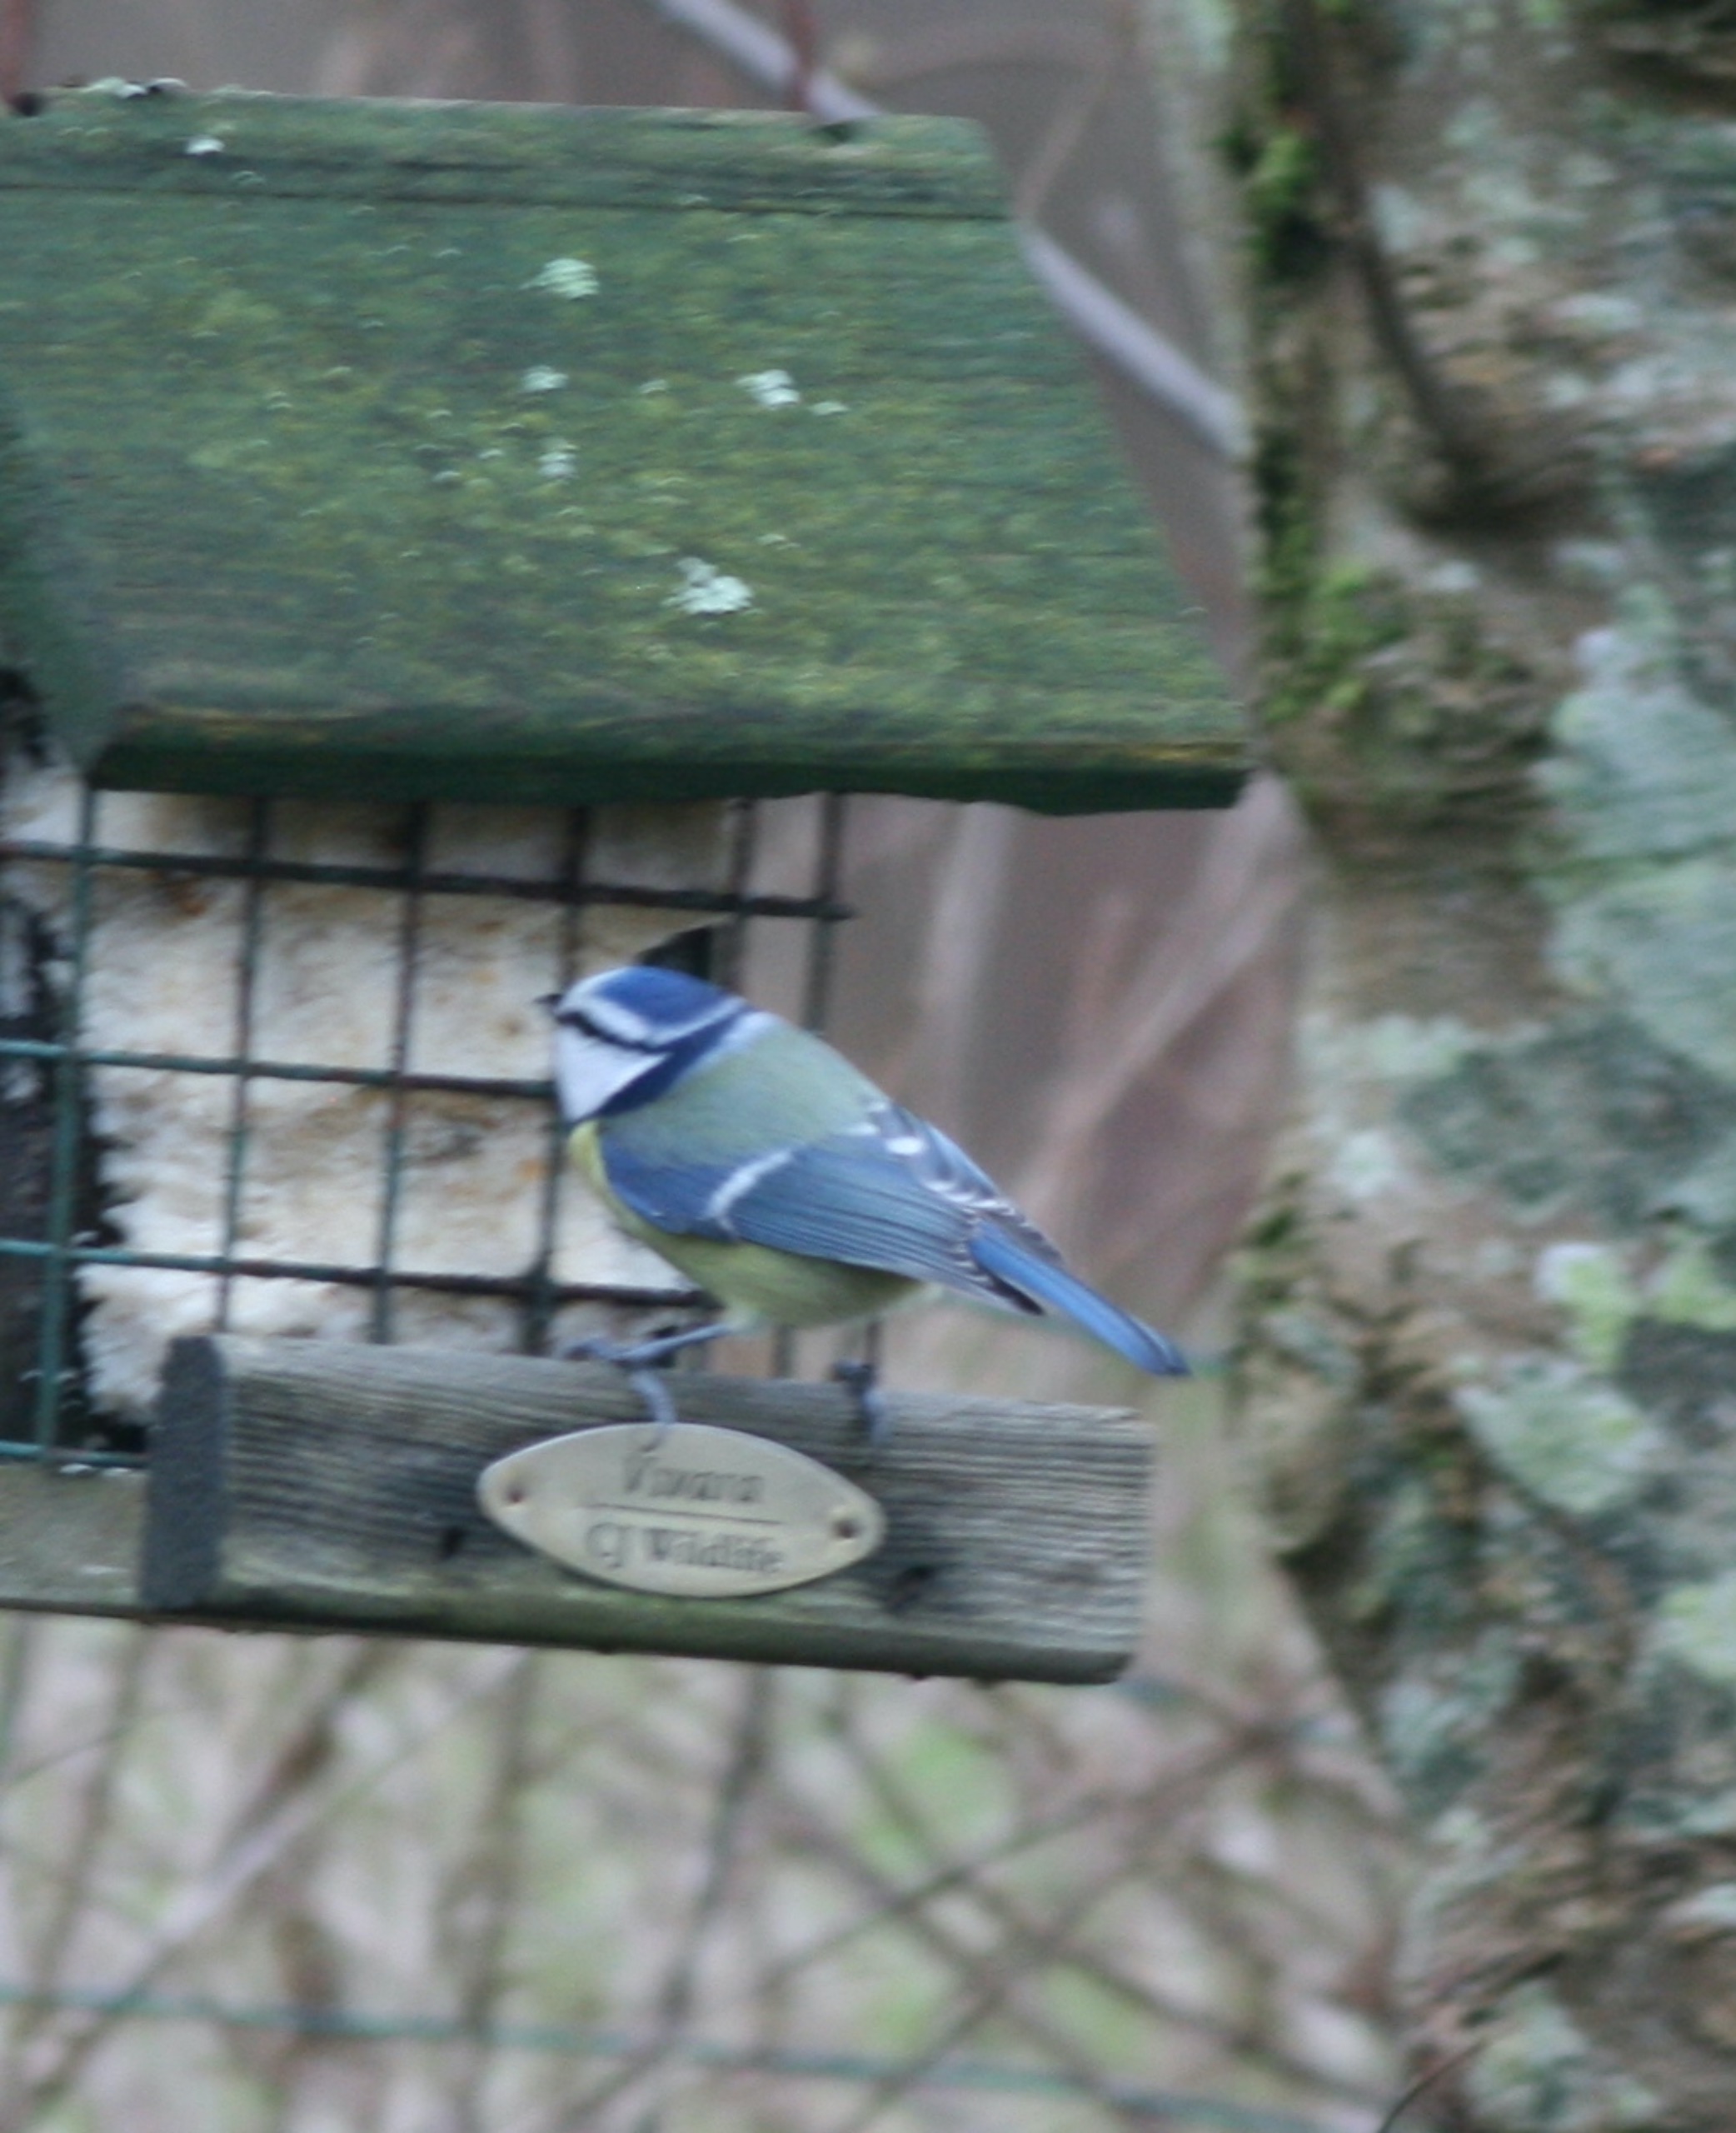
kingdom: Animalia
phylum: Chordata
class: Aves
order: Passeriformes
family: Paridae
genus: Cyanistes
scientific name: Cyanistes caeruleus
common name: Blåmejse
